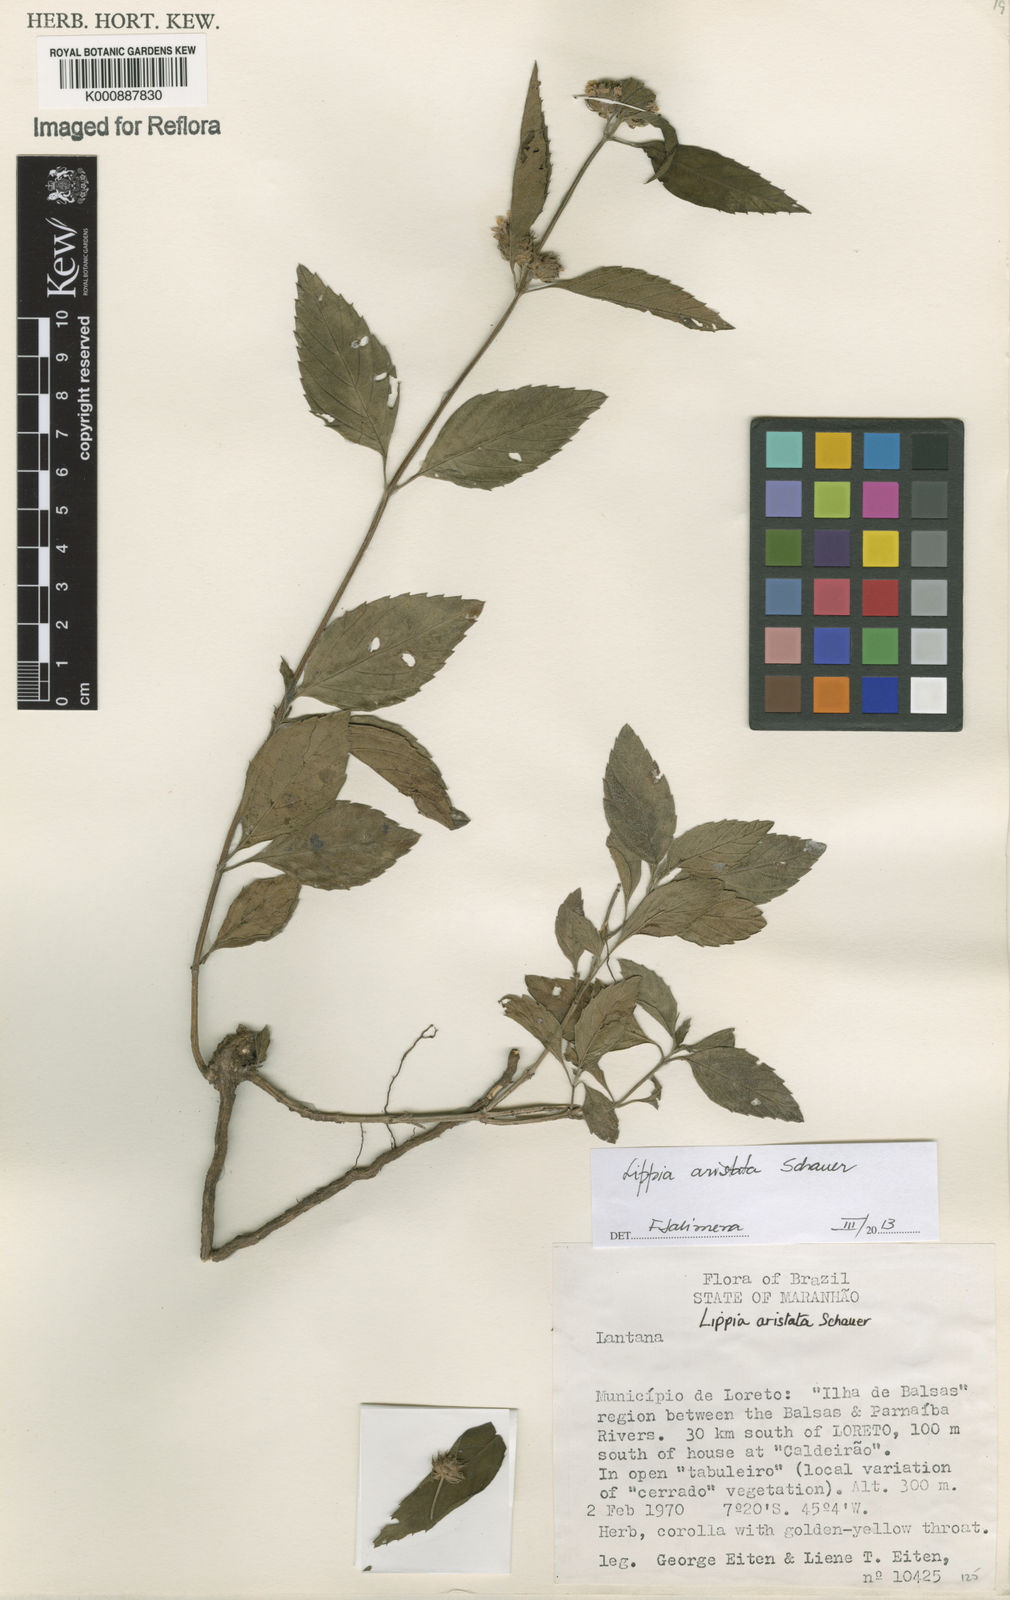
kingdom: Plantae
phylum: Tracheophyta
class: Magnoliopsida
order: Lamiales
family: Verbenaceae
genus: Lippia
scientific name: Lippia aristata
